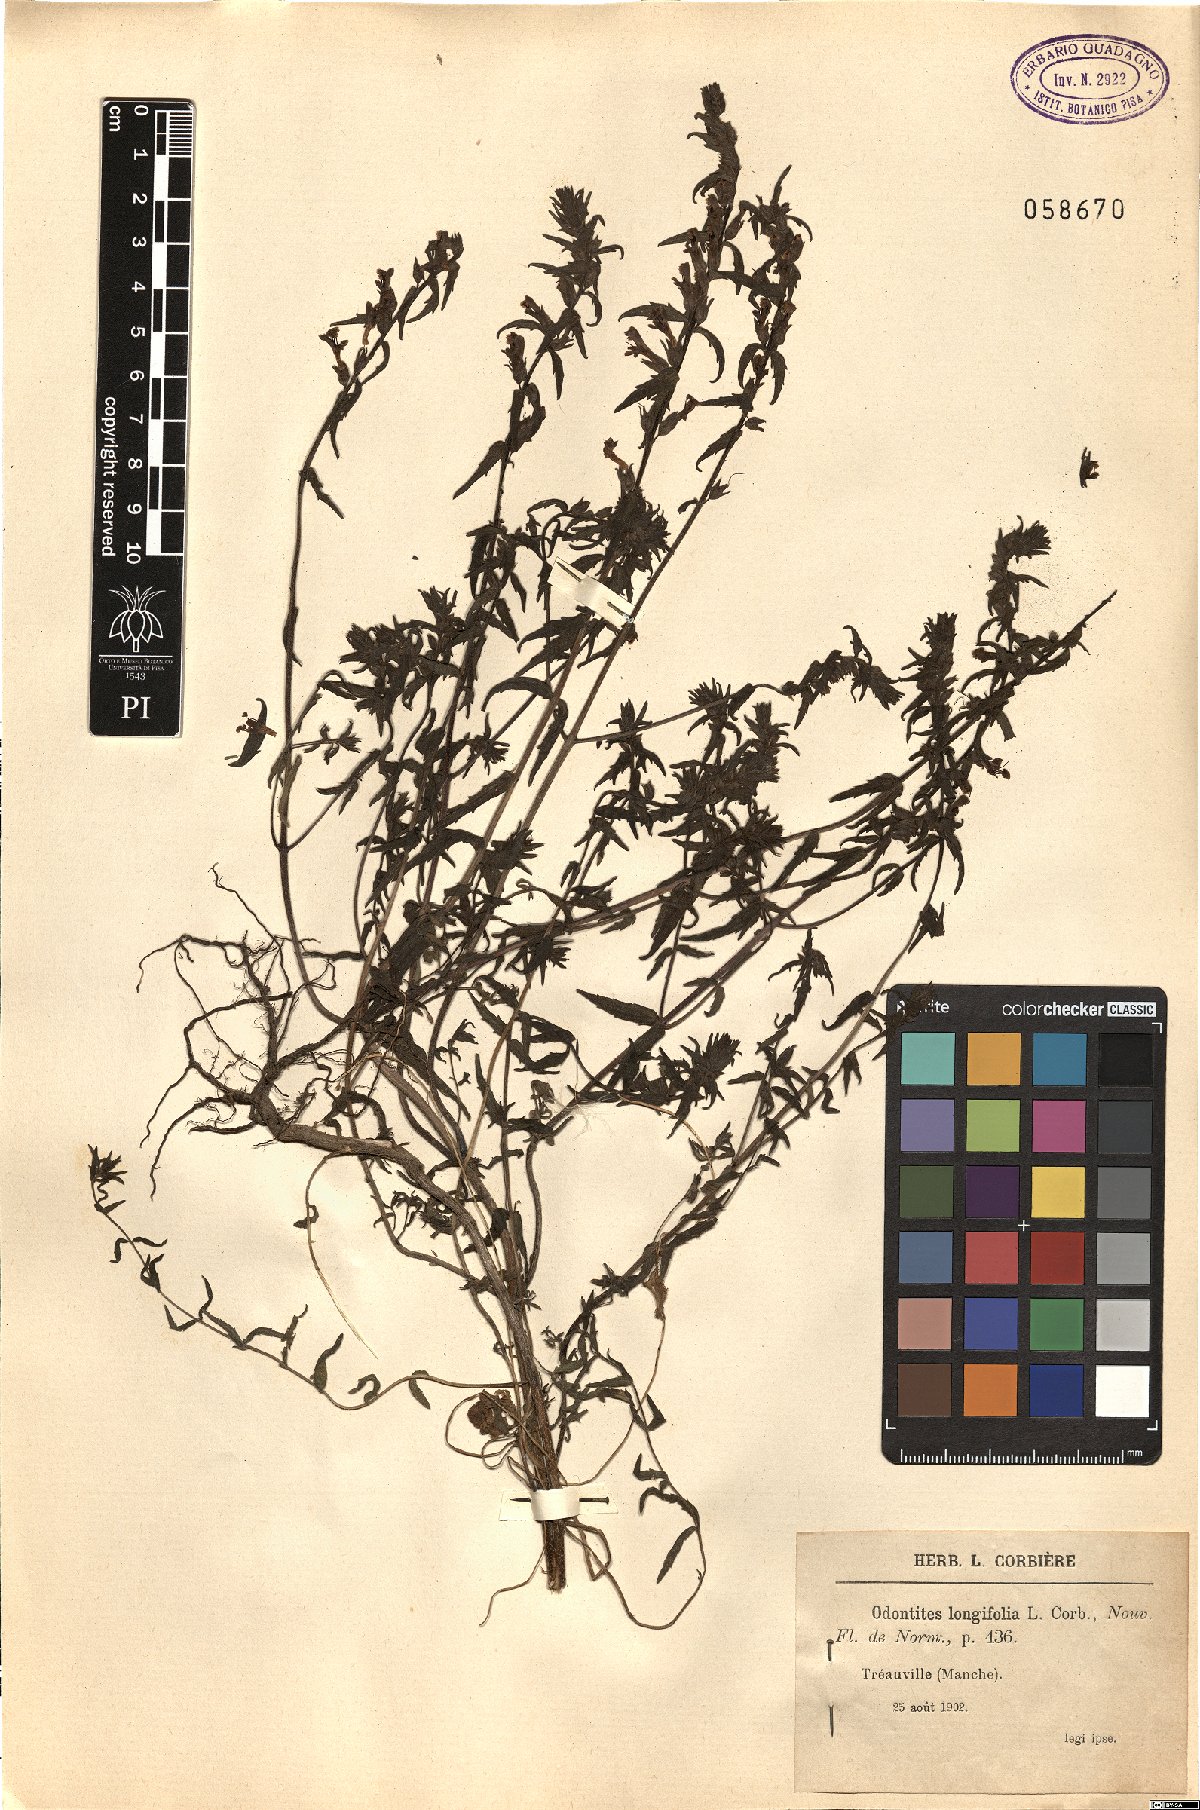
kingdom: Plantae
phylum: Tracheophyta
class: Magnoliopsida
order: Lamiales
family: Orobanchaceae
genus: Odontites
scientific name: Odontites longiflorus
